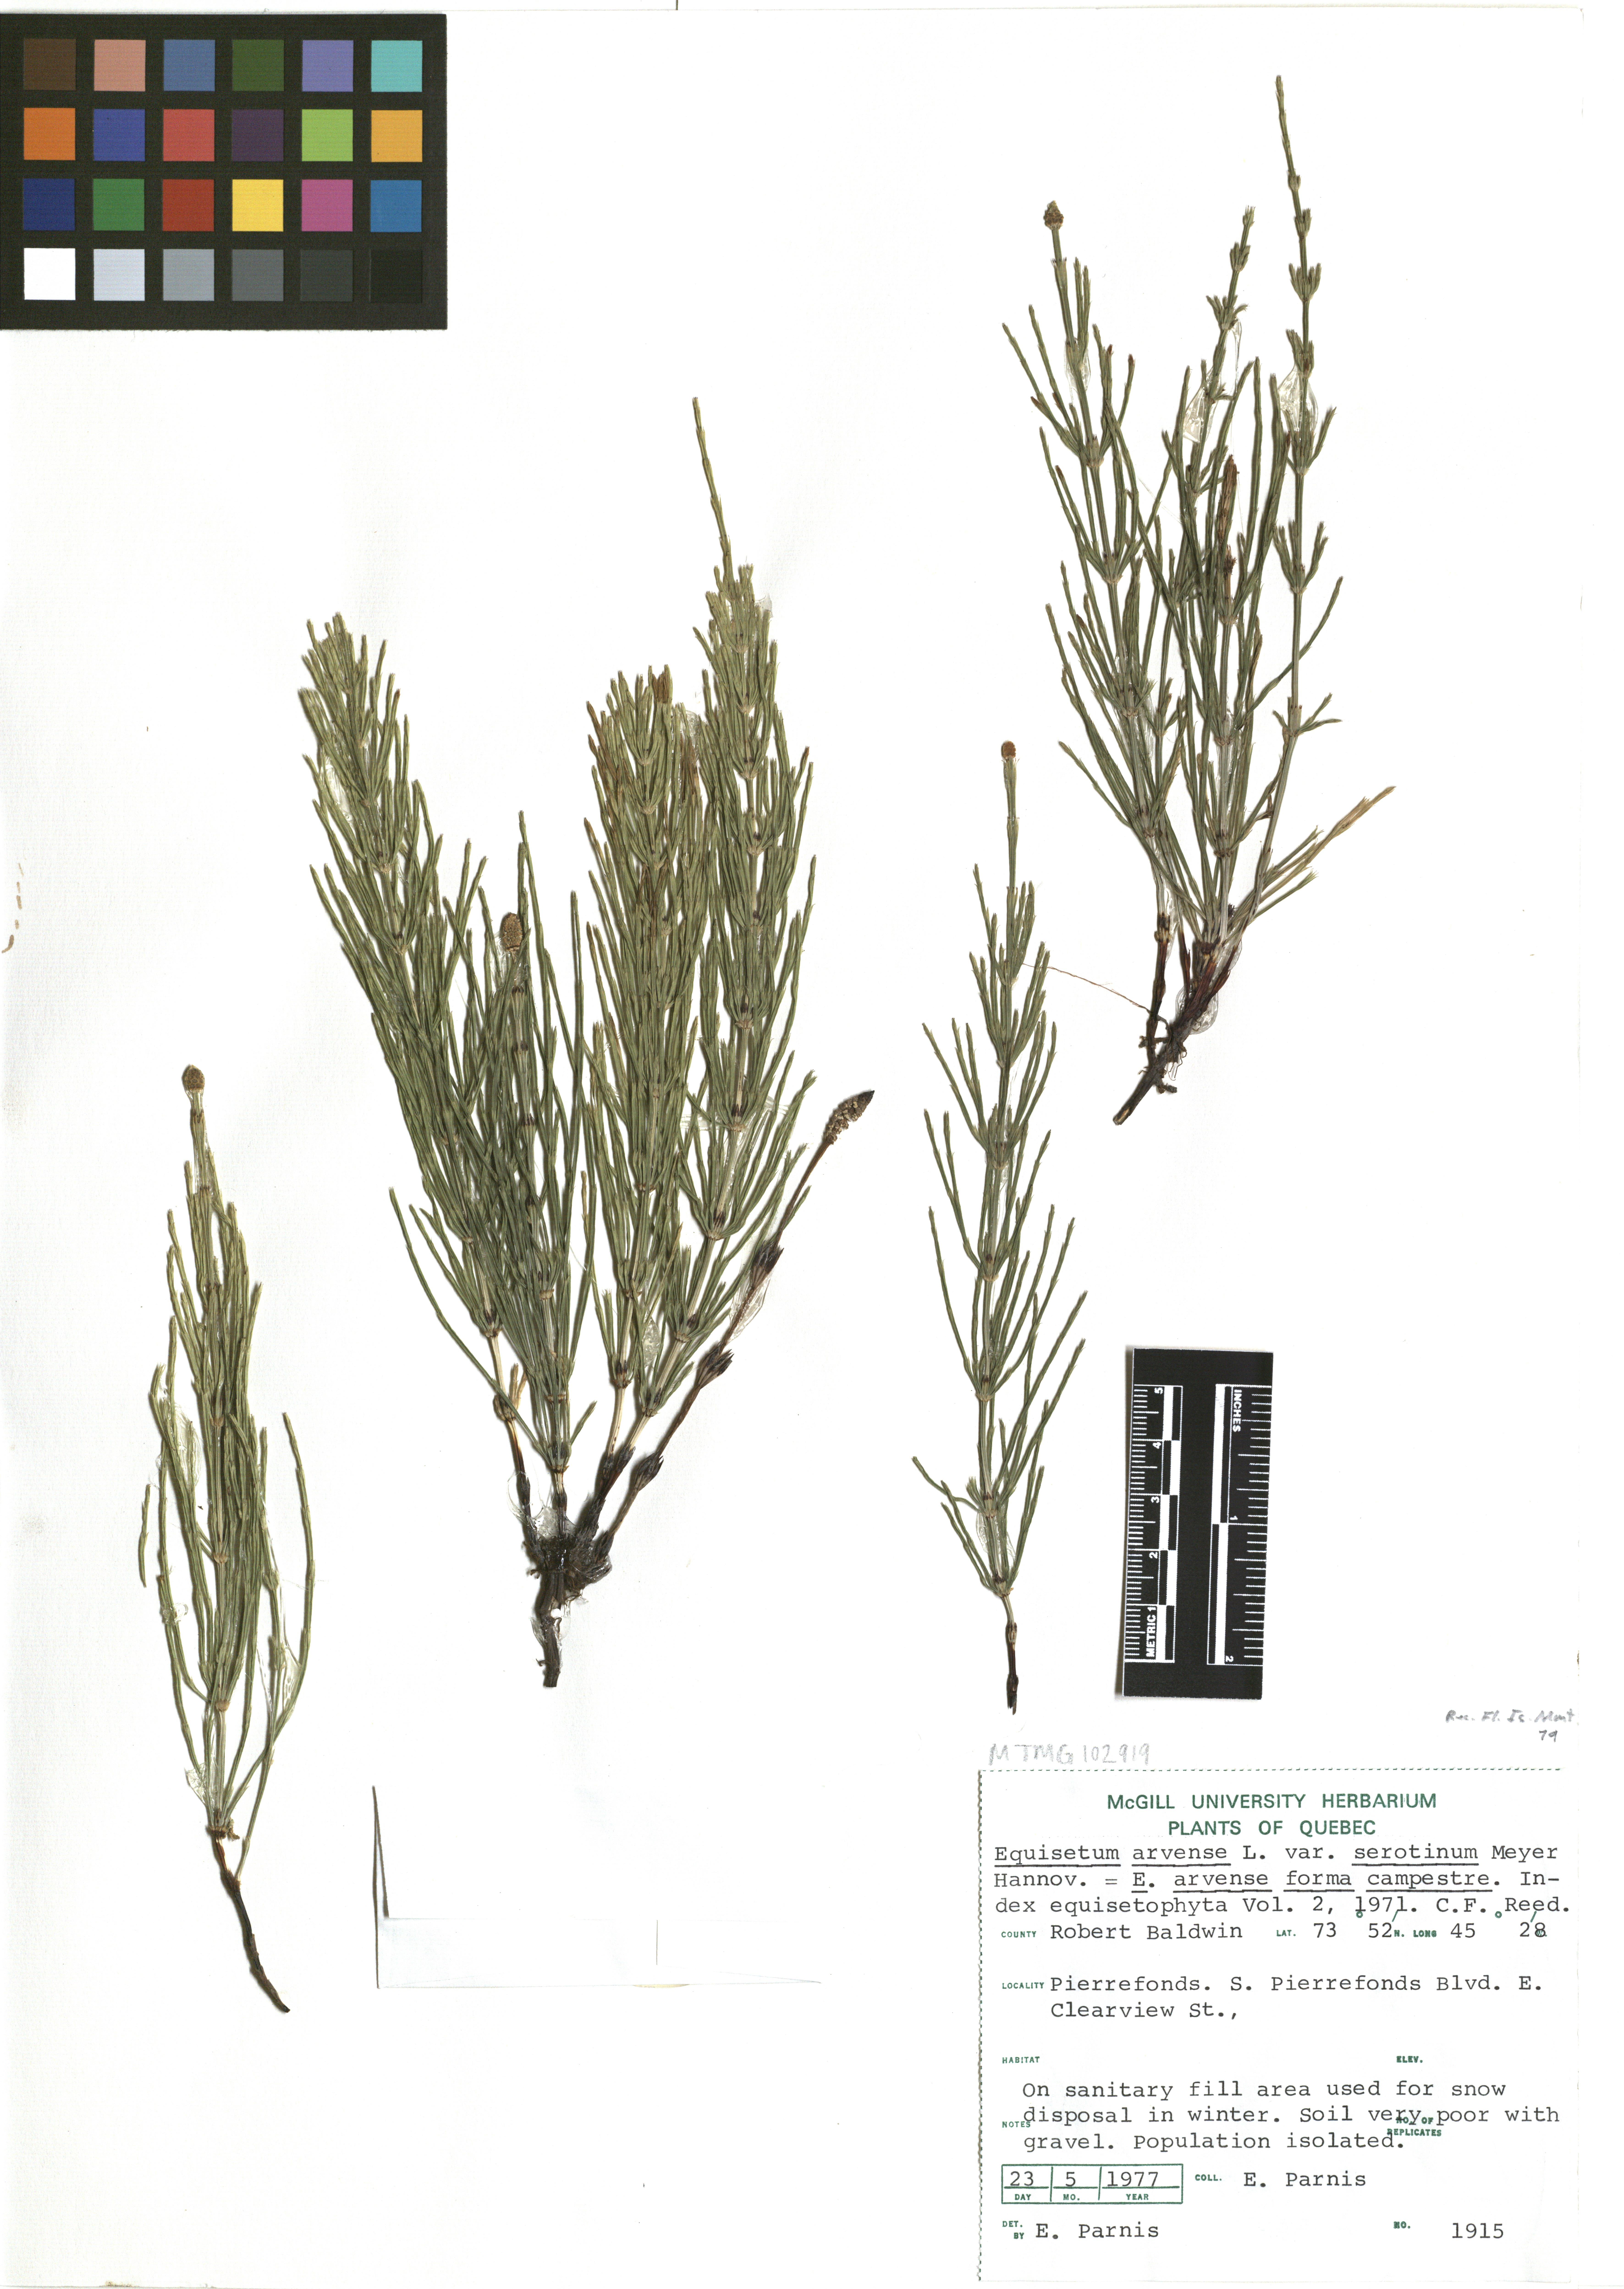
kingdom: Plantae
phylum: Tracheophyta
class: Polypodiopsida
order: Equisetales
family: Equisetaceae
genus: Equisetum
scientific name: Equisetum arvense
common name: Field horsetail
